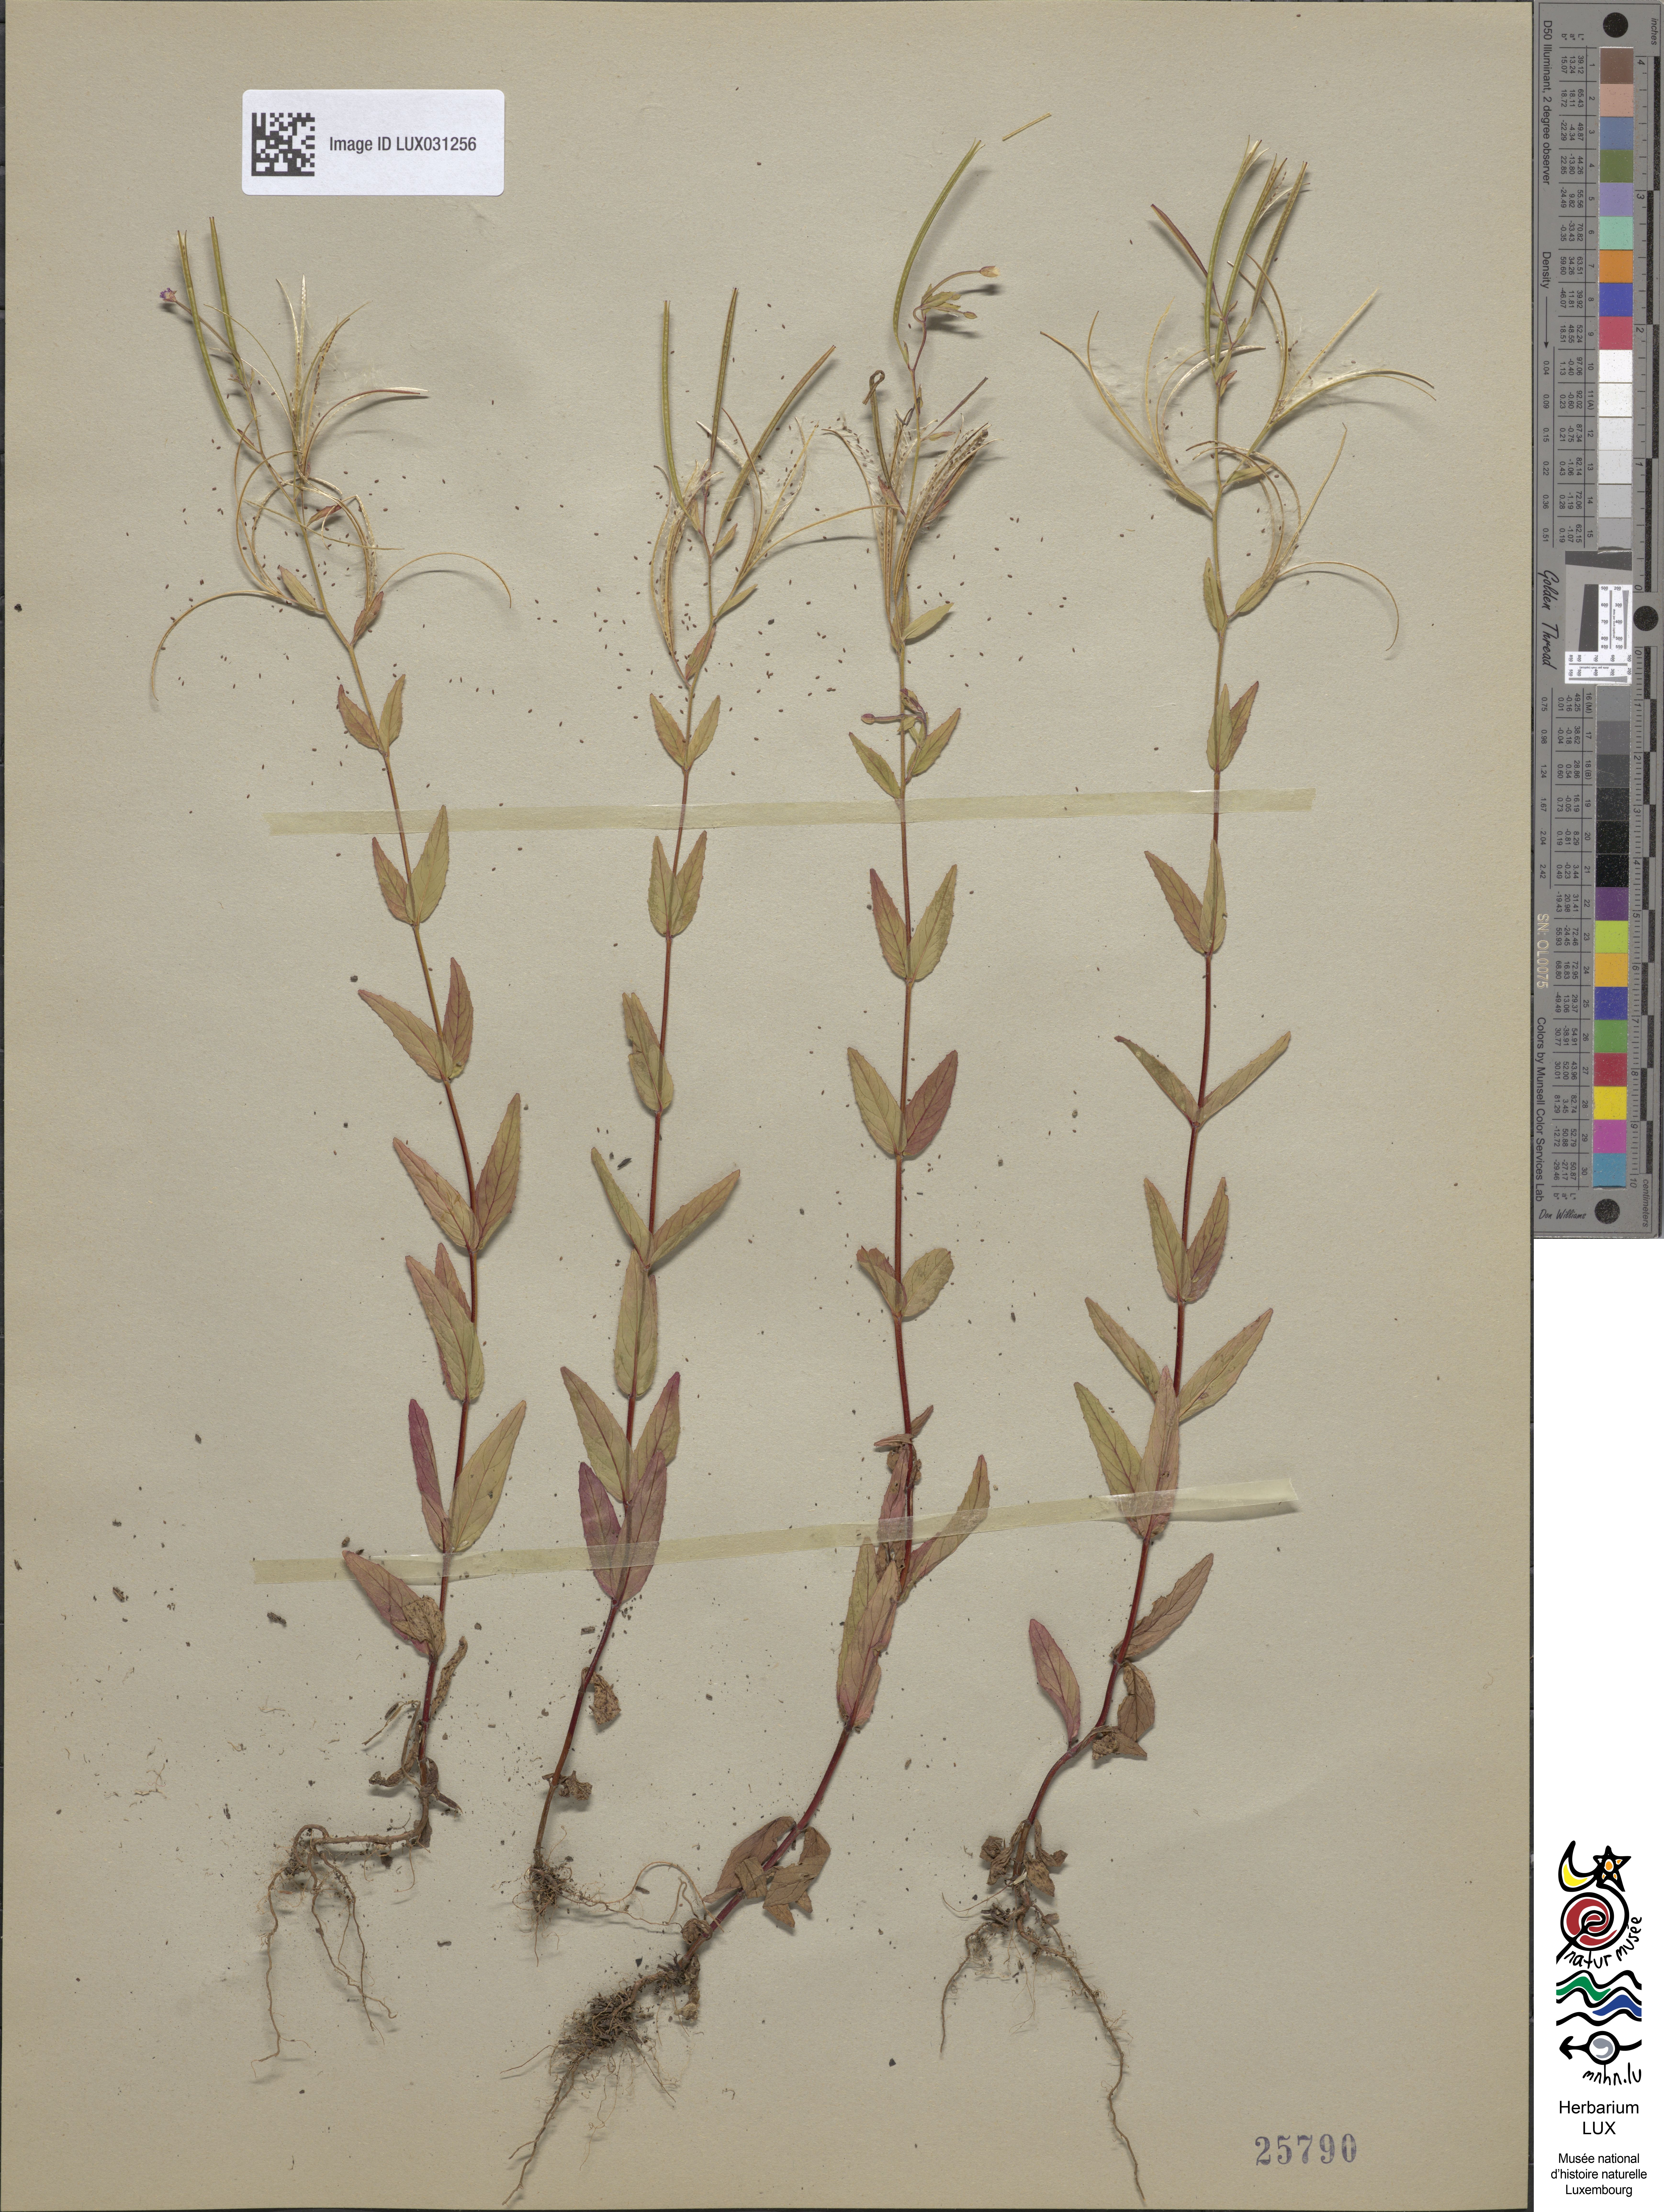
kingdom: Plantae
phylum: Tracheophyta
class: Magnoliopsida
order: Myrtales
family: Onagraceae
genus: Epilobium
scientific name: Epilobium ciliatum
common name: American willowherb
